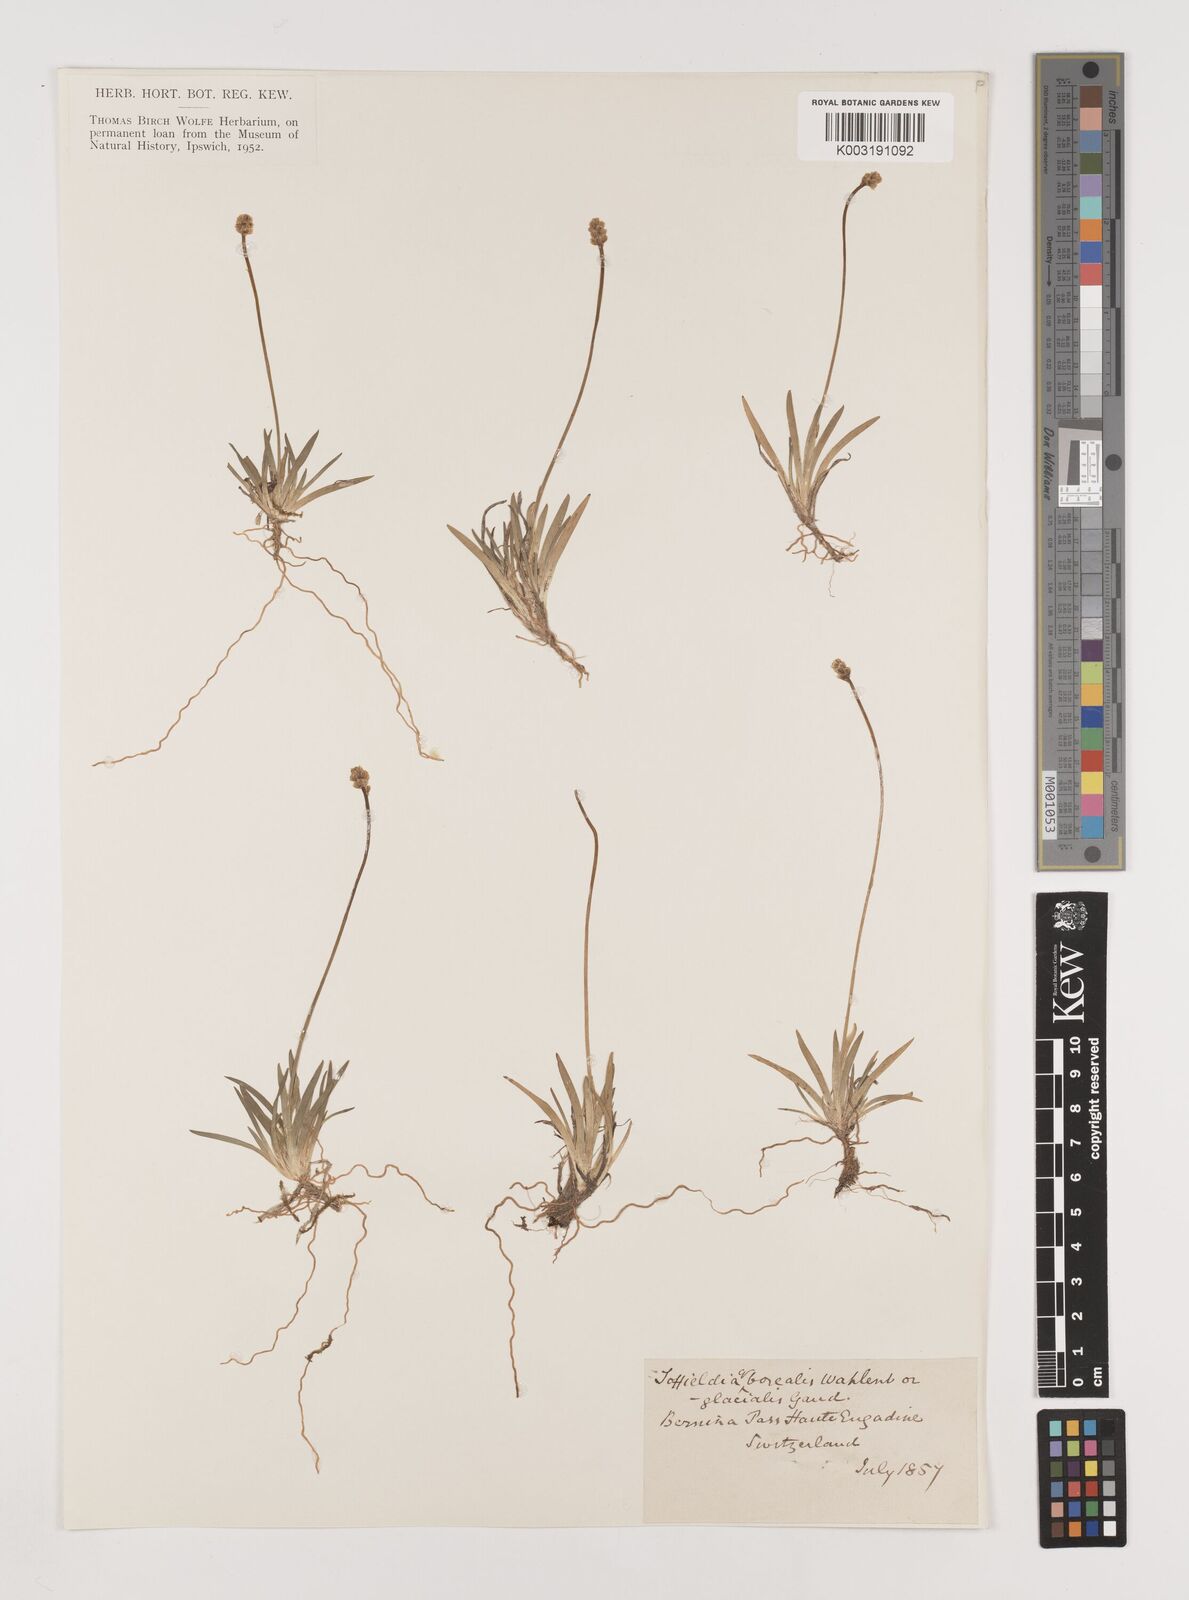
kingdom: Plantae
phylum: Tracheophyta
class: Liliopsida
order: Alismatales
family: Tofieldiaceae
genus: Tofieldia
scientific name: Tofieldia pusilla
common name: Scottish false asphodel
